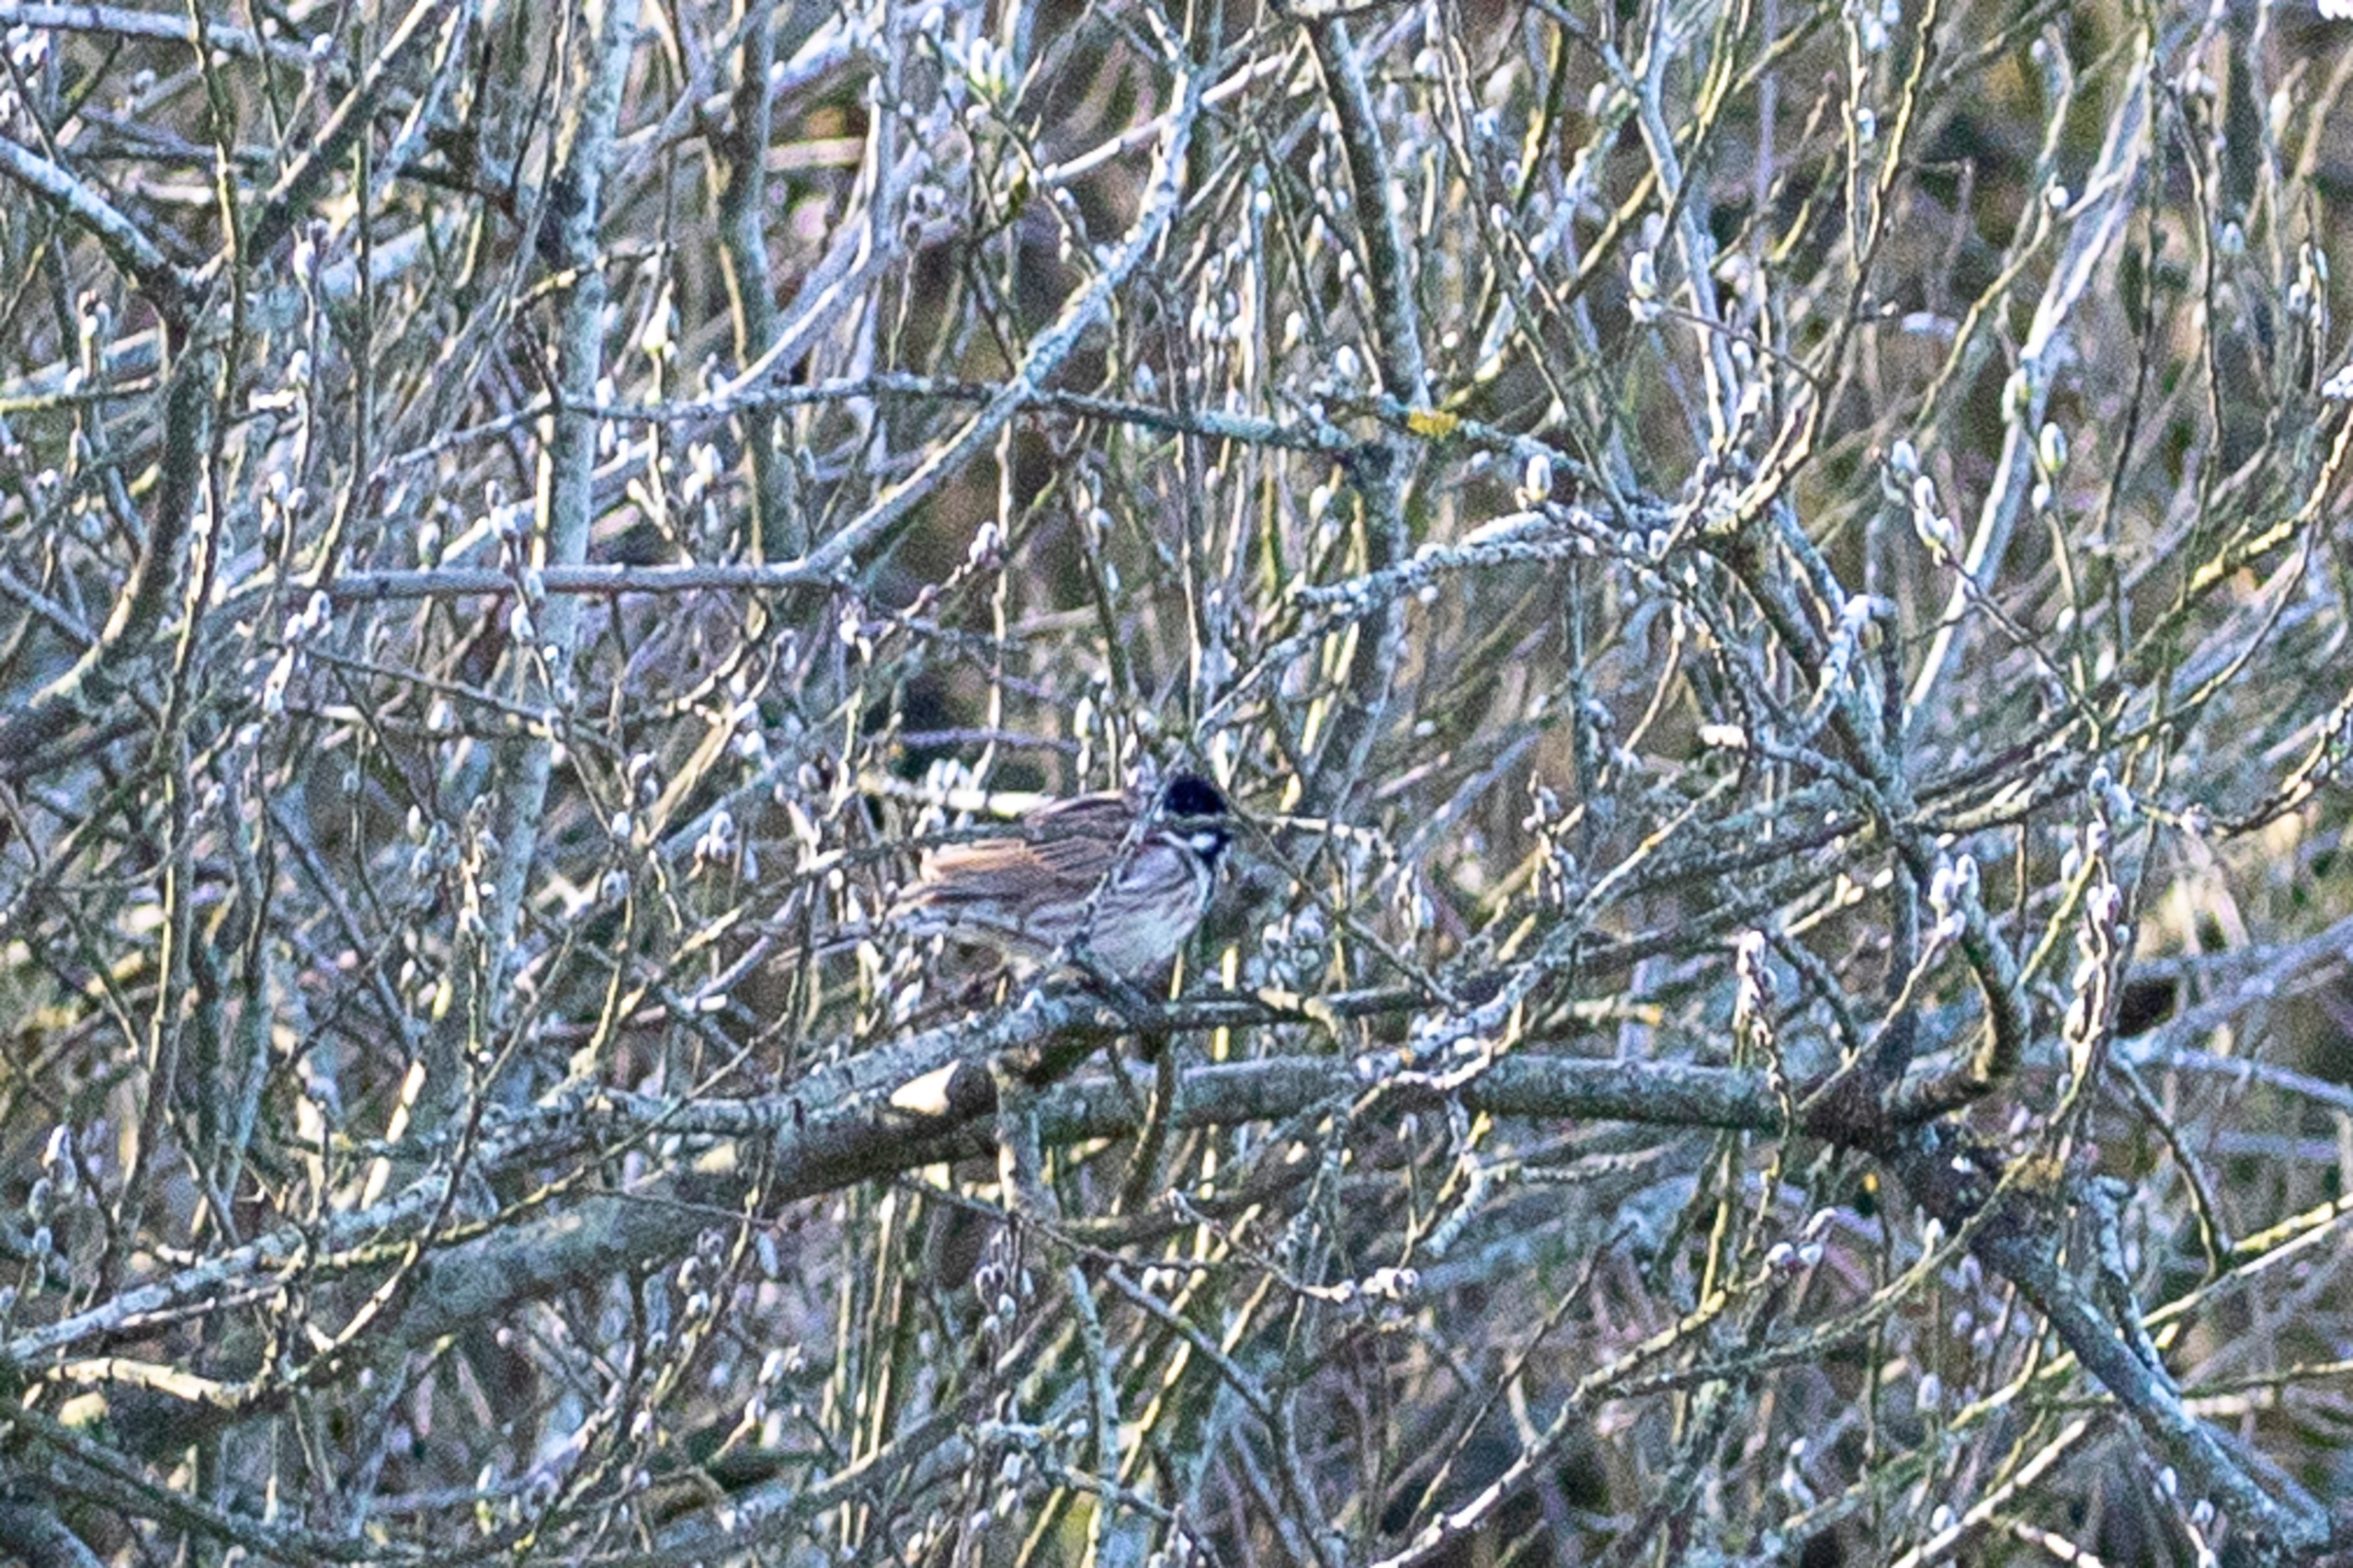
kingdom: Animalia
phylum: Chordata
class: Aves
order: Passeriformes
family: Emberizidae
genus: Emberiza
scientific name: Emberiza schoeniclus
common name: Rørspurv
